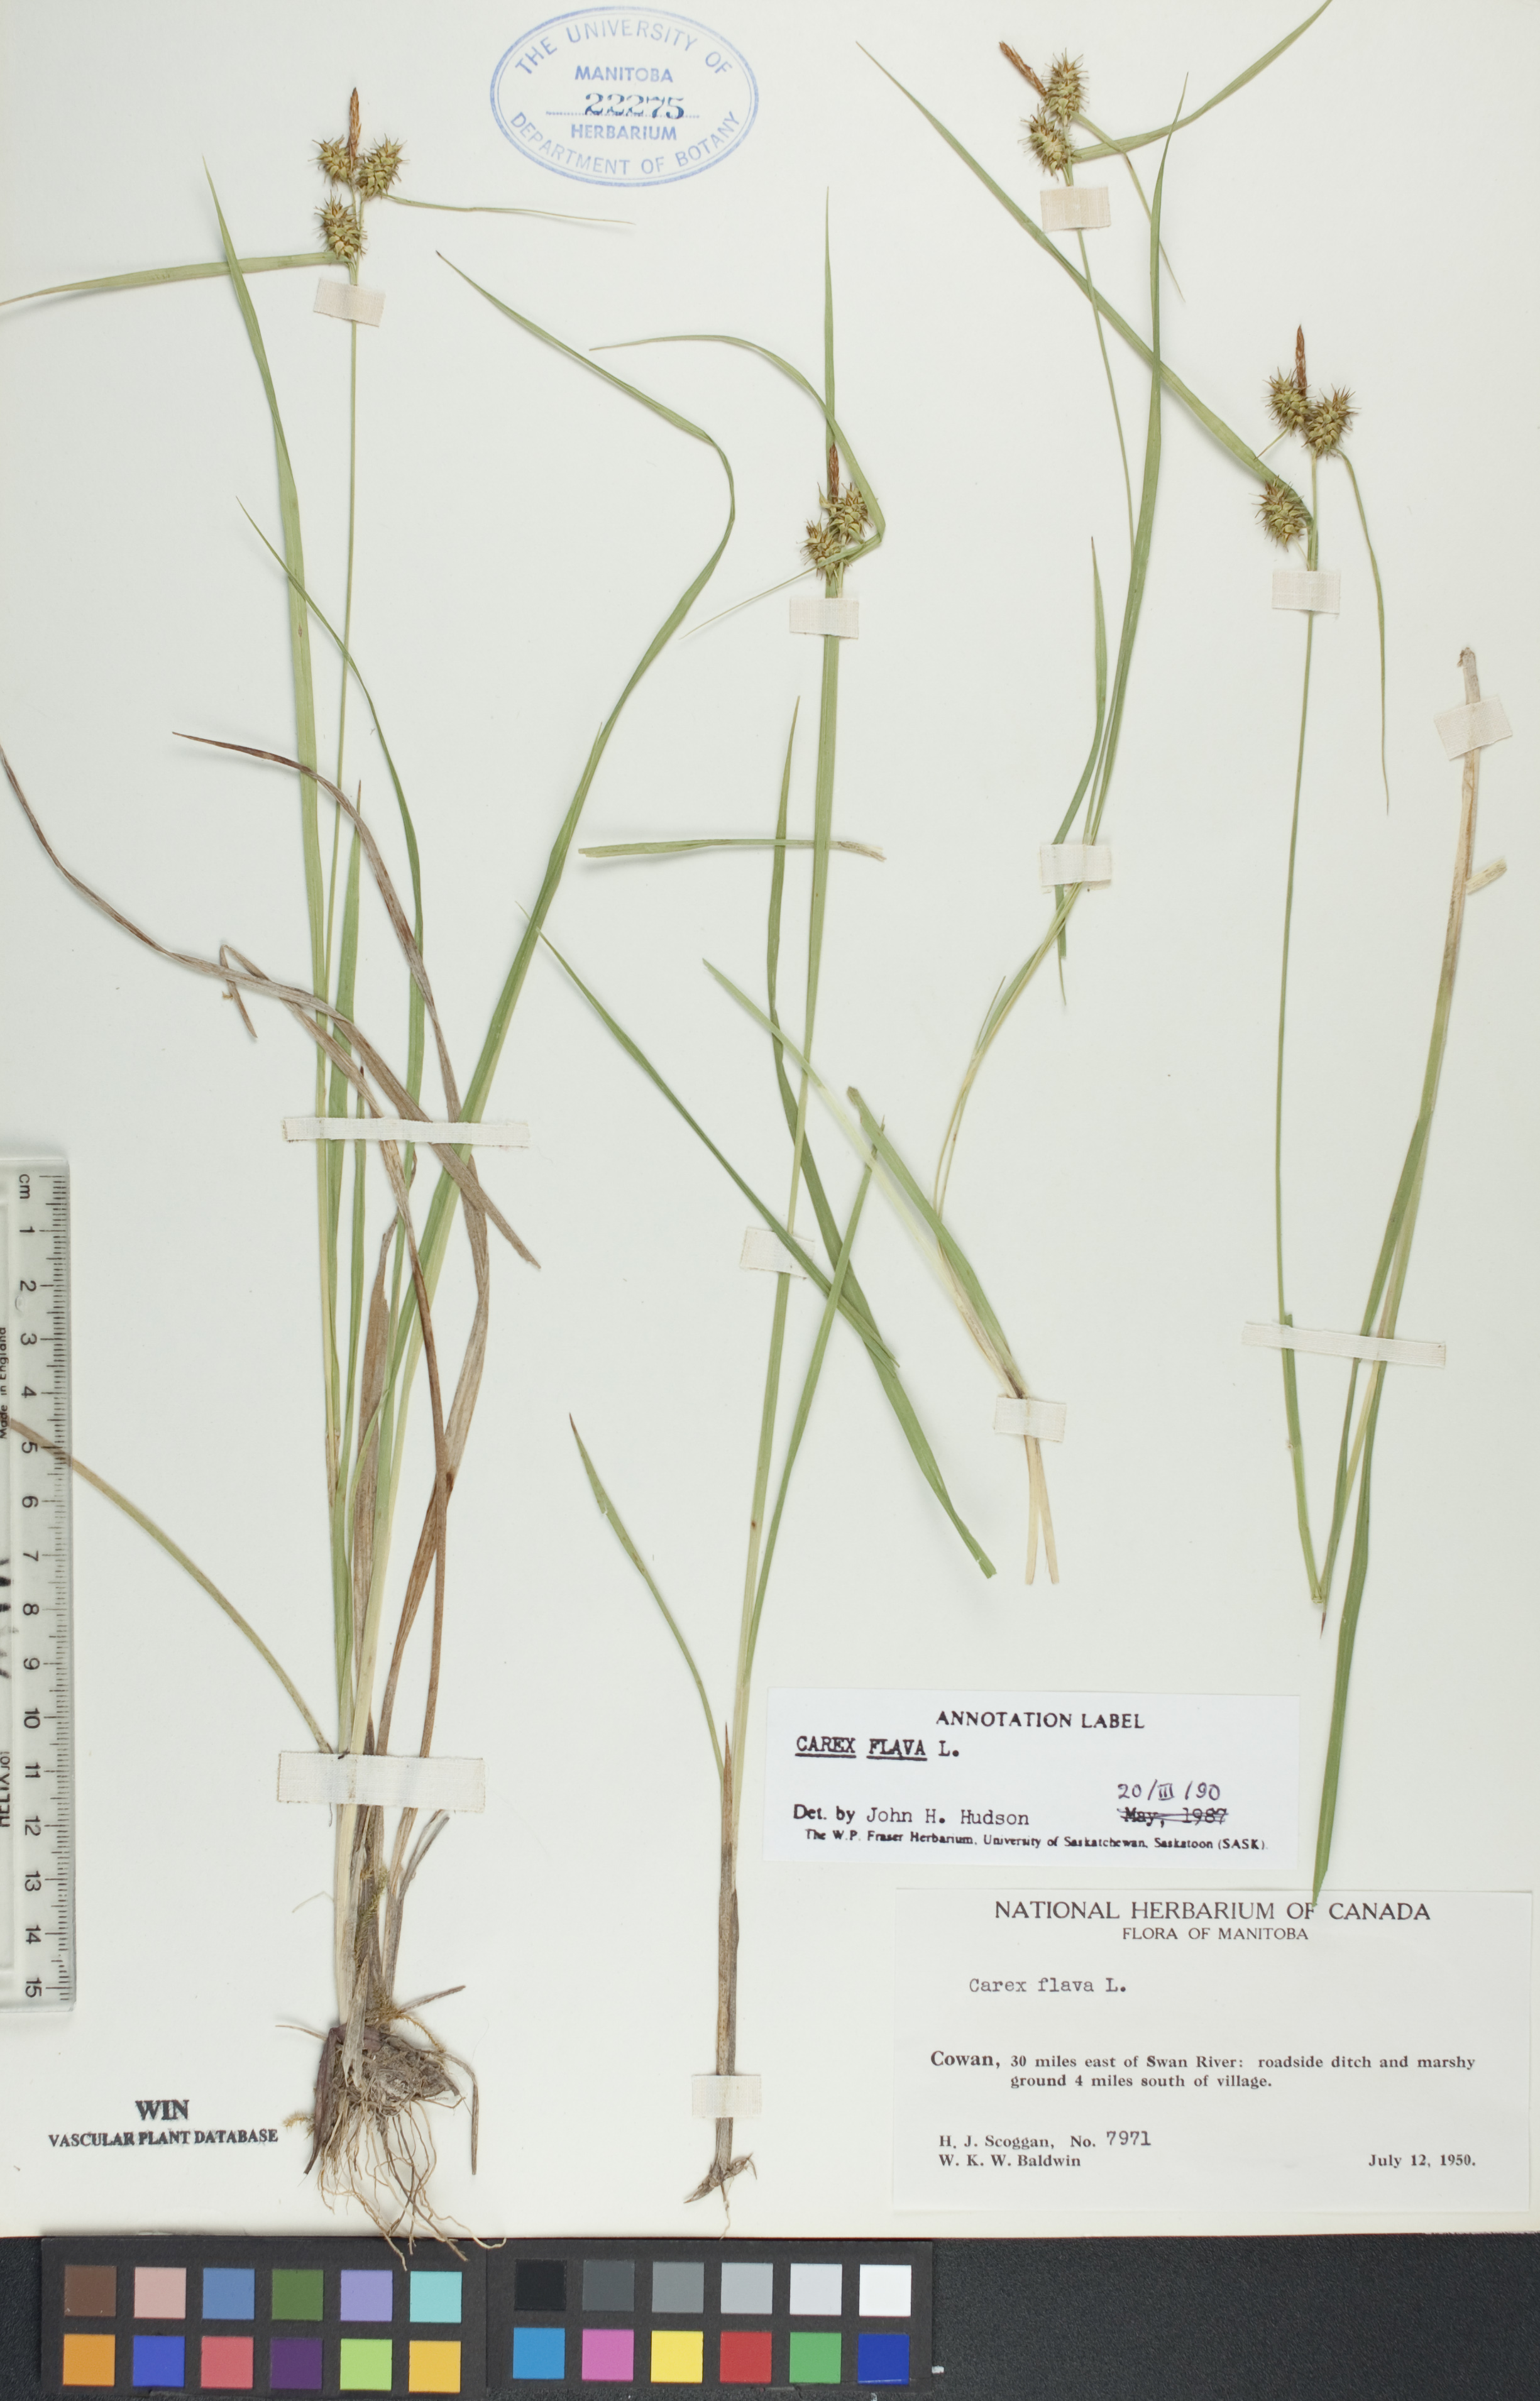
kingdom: Plantae
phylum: Tracheophyta
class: Liliopsida
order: Poales
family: Cyperaceae
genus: Carex
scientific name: Carex flava
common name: Large yellow-sedge
